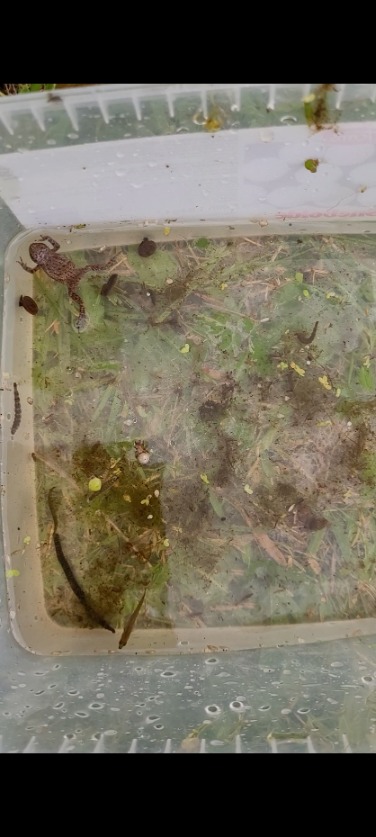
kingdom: Animalia
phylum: Chordata
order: Gasterosteiformes
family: Gasterosteidae
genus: Gasterosteus
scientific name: Gasterosteus aculeatus
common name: Trepigget hundestejle
